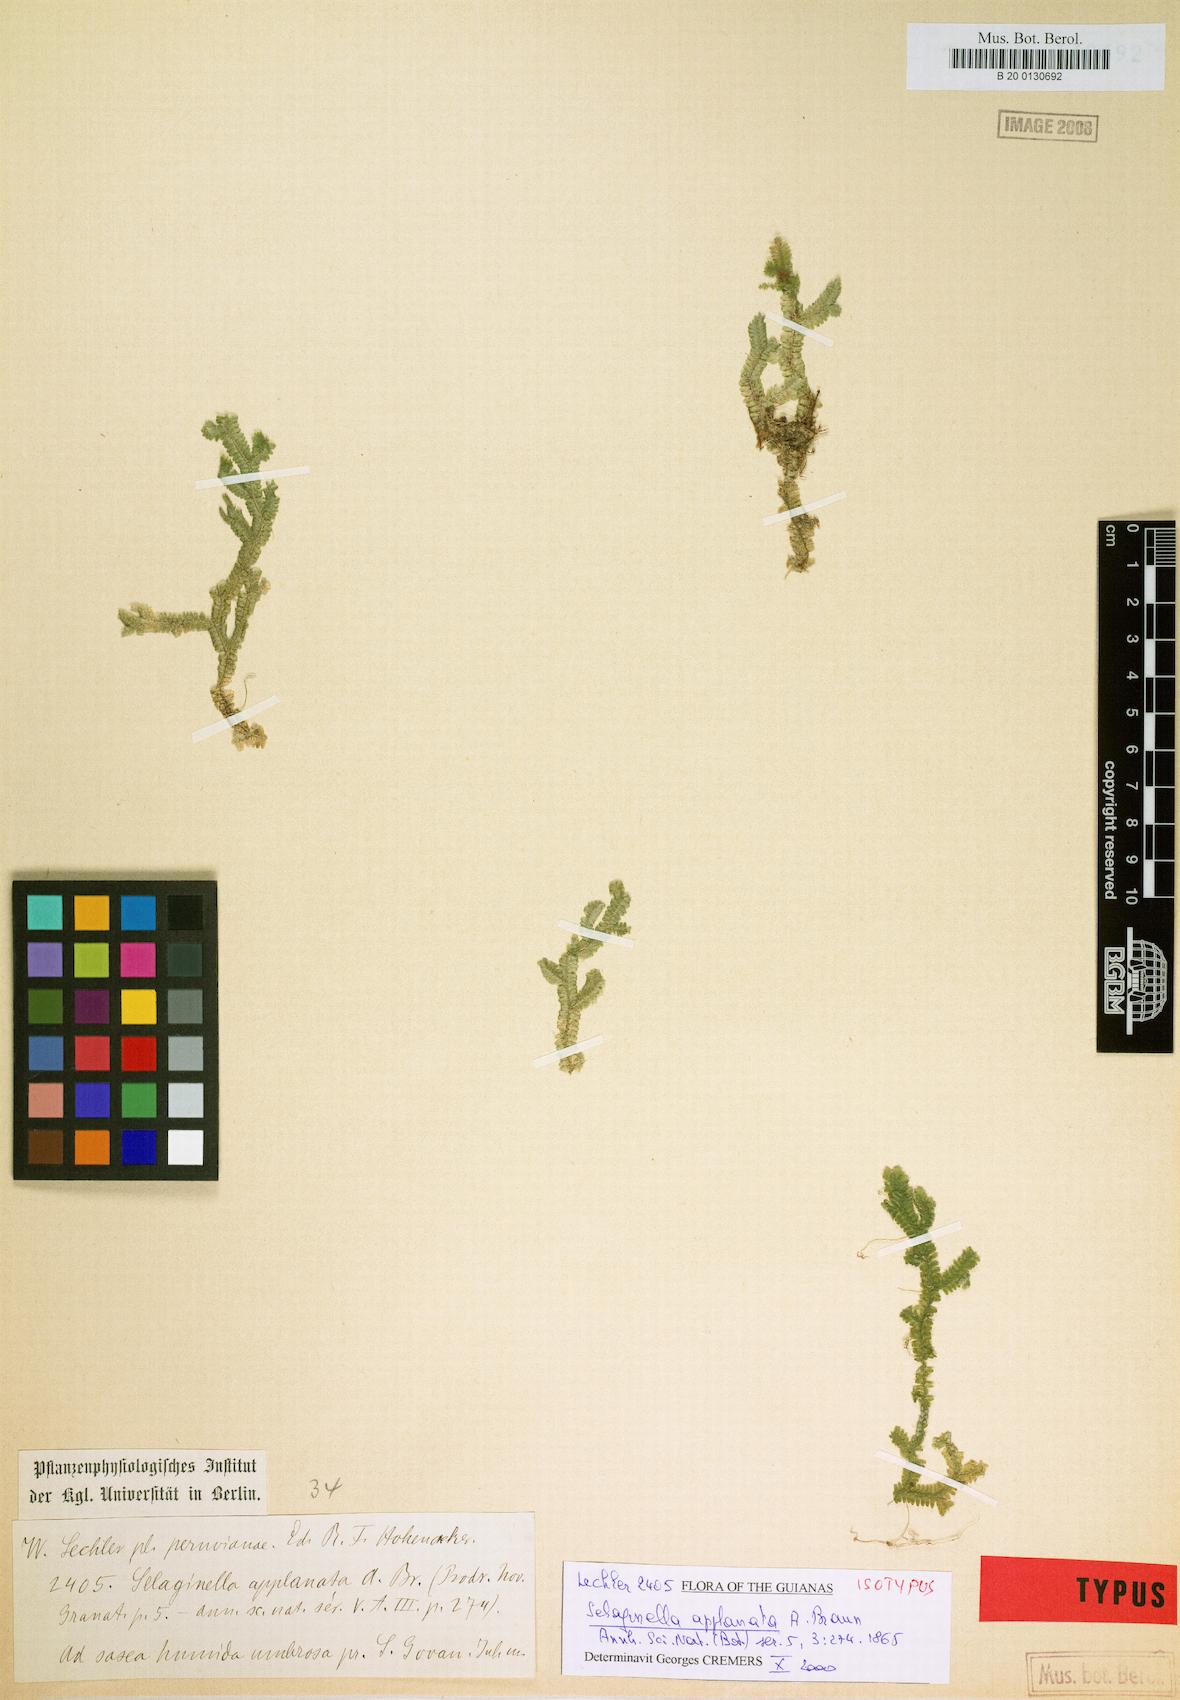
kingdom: Plantae
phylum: Tracheophyta
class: Lycopodiopsida
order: Selaginellales
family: Selaginellaceae
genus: Selaginella
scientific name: Selaginella applanata
